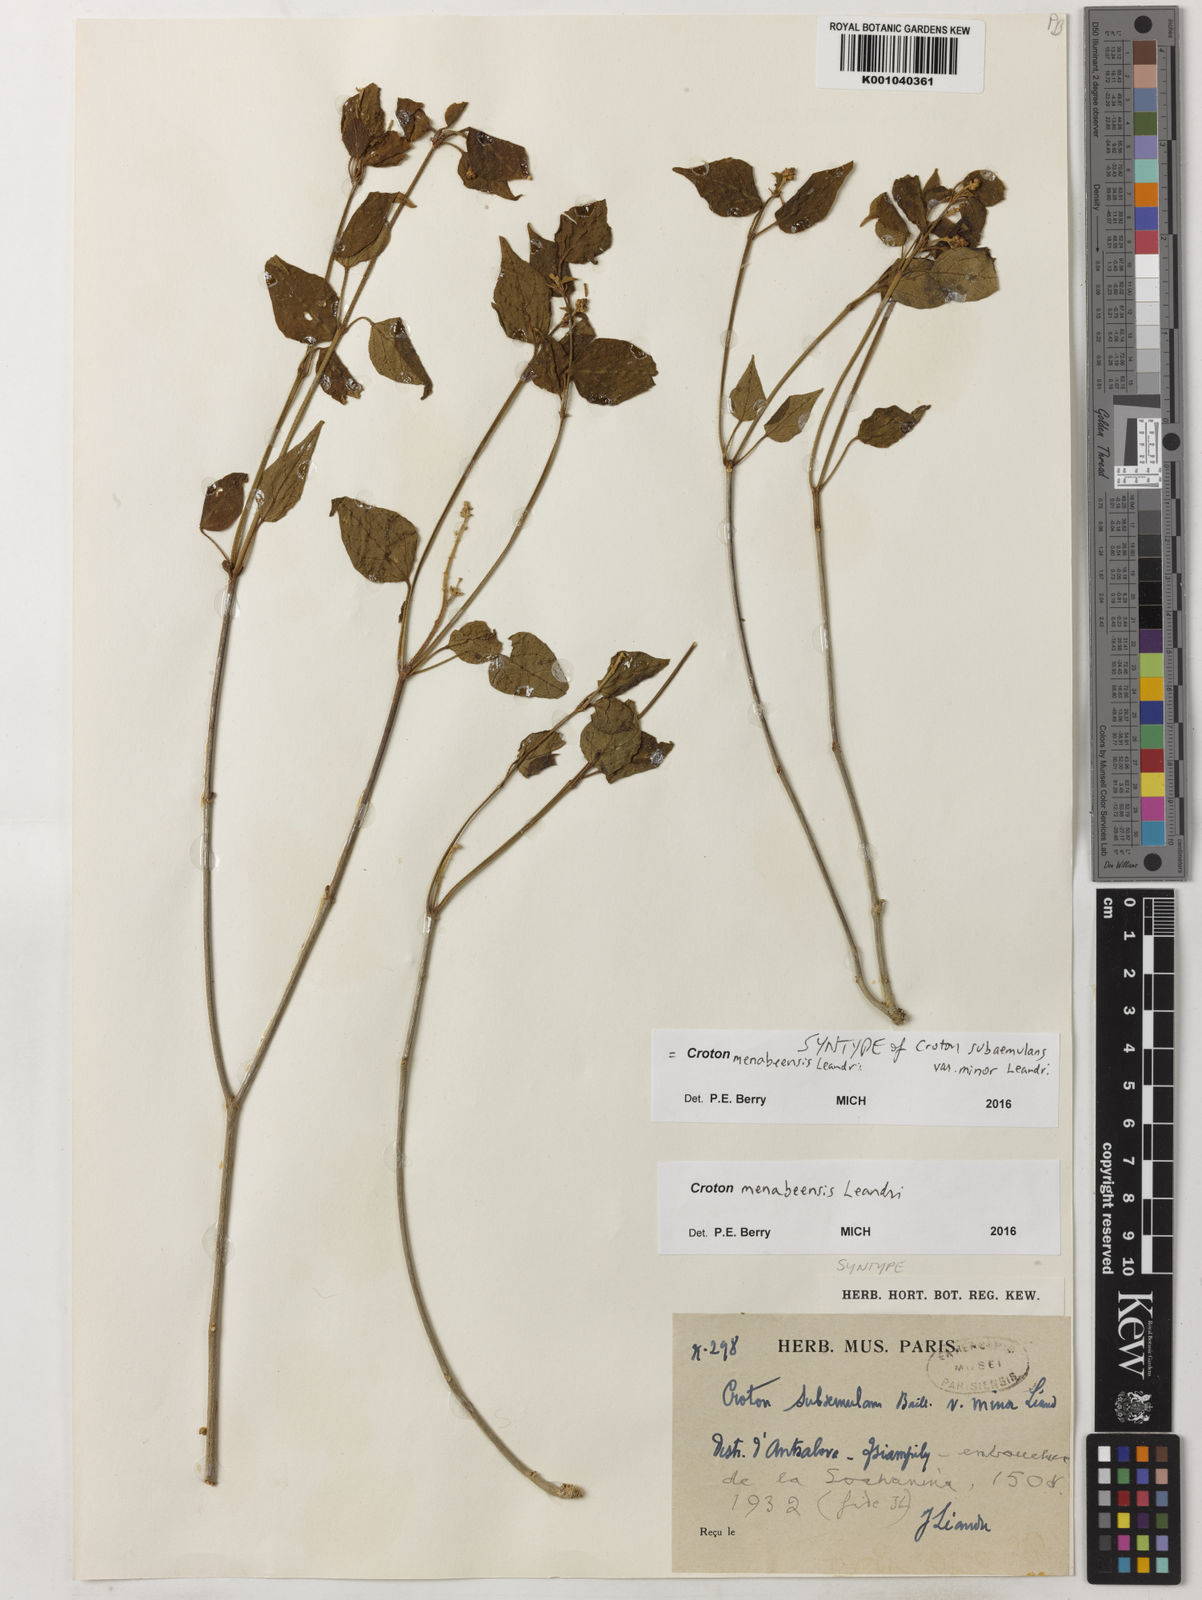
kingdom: Plantae
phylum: Tracheophyta
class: Magnoliopsida
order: Malpighiales
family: Euphorbiaceae
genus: Croton
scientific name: Croton menabeensis
